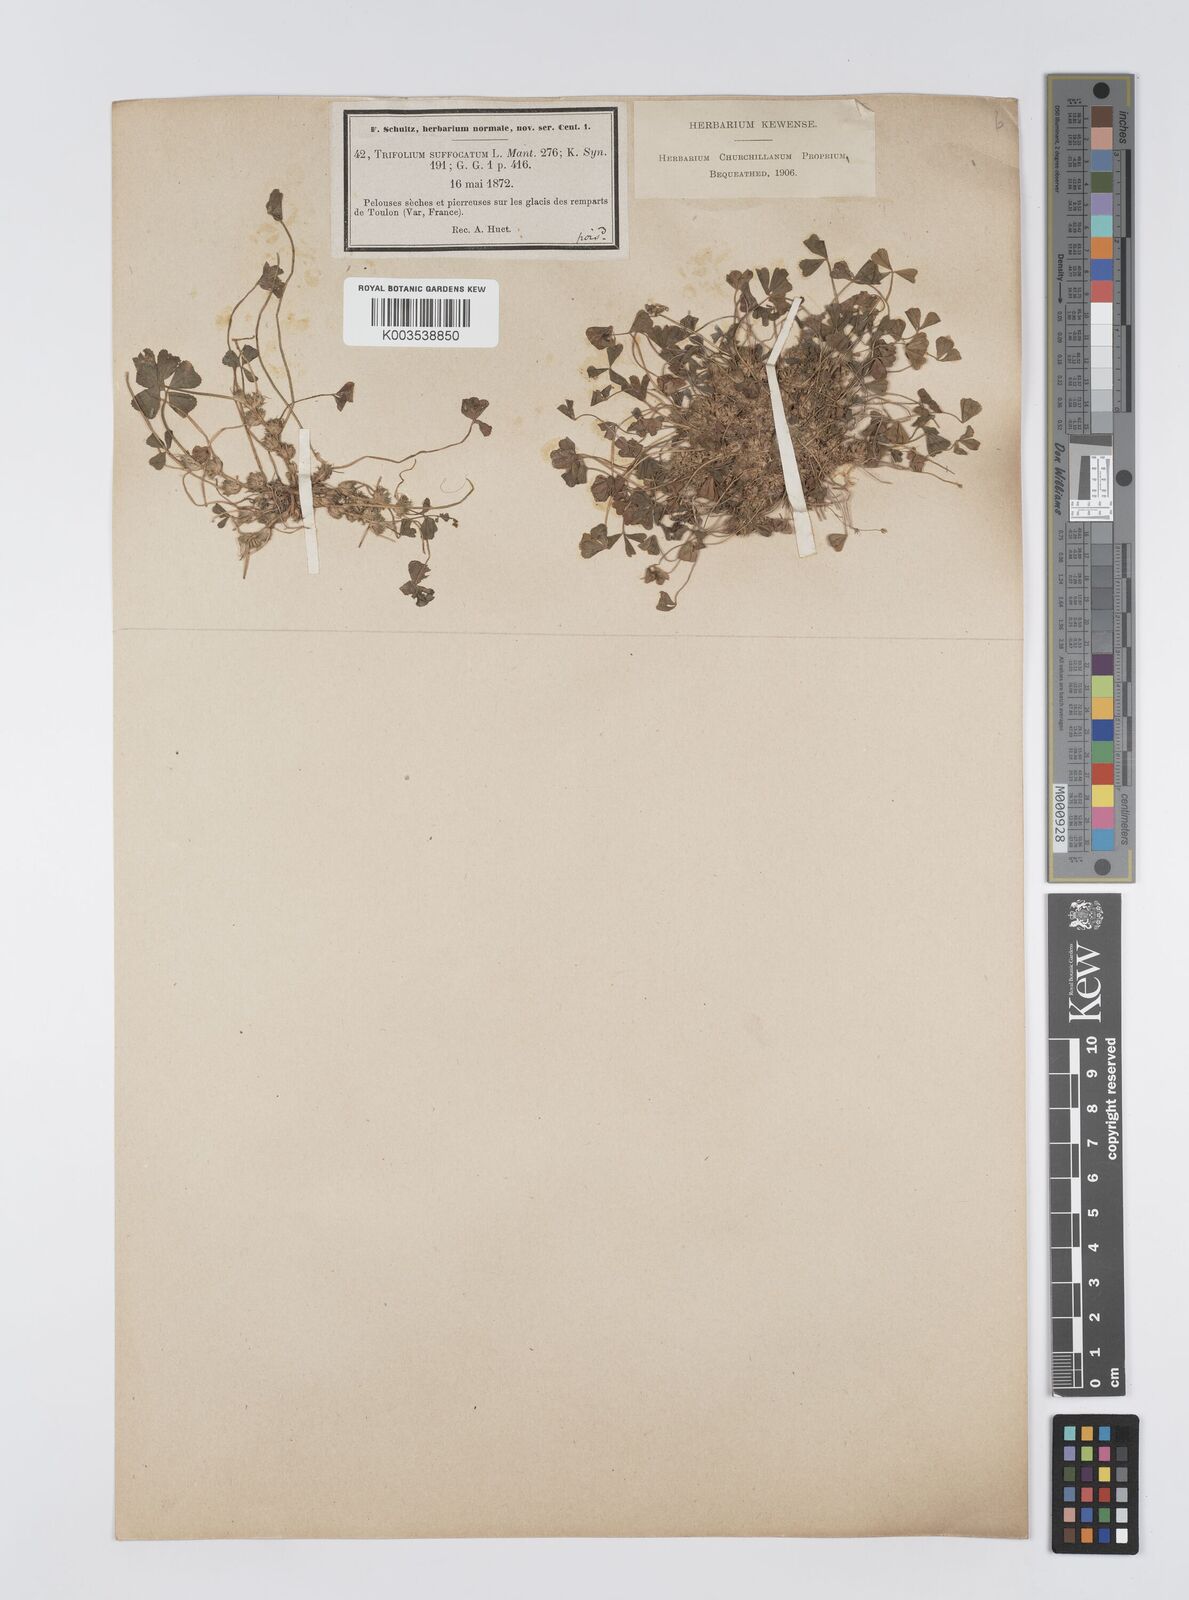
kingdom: Plantae
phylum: Tracheophyta
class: Magnoliopsida
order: Fabales
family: Fabaceae
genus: Trifolium
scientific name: Trifolium suffocatum
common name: Suffocated clover
